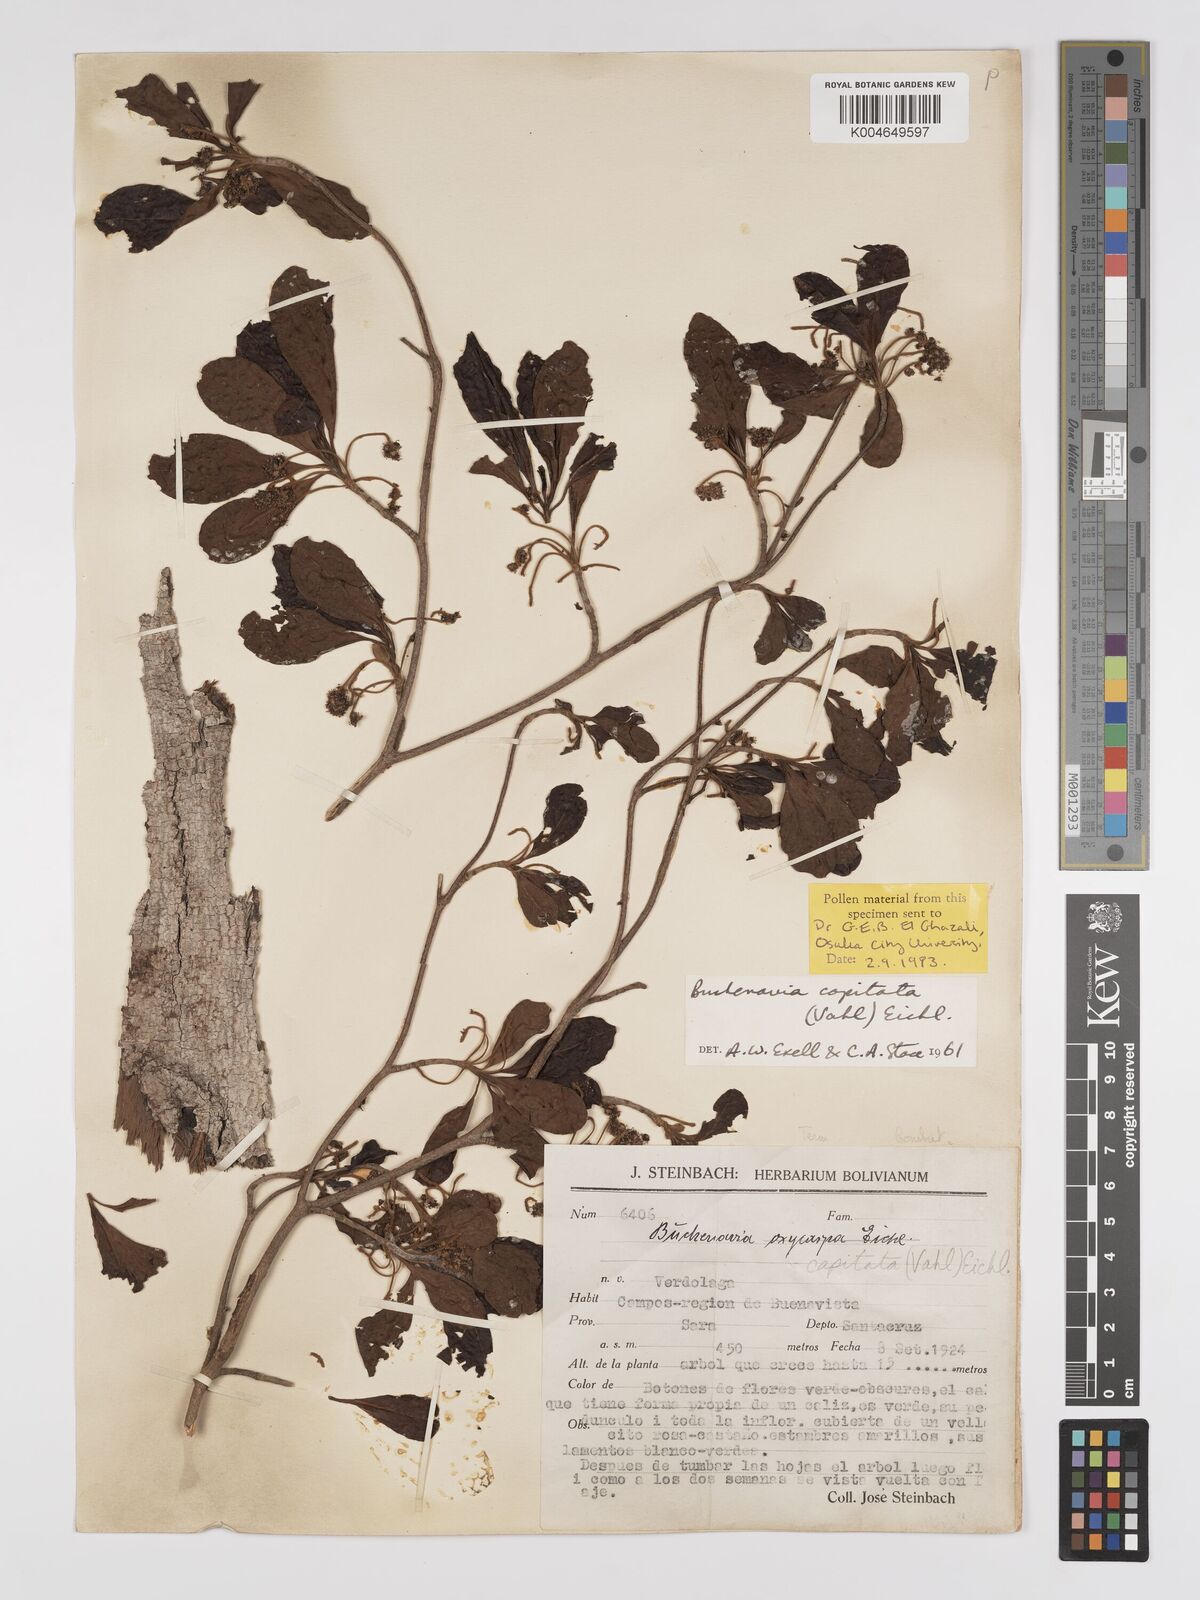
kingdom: Plantae
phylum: Tracheophyta
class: Magnoliopsida
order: Myrtales
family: Combretaceae
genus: Terminalia
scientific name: Terminalia tetraphylla
